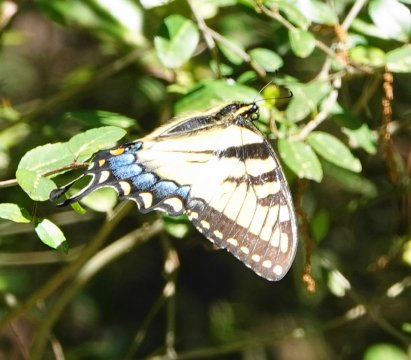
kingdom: Animalia
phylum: Arthropoda
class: Insecta
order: Lepidoptera
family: Papilionidae
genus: Pterourus
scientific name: Pterourus glaucus
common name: Eastern Tiger Swallowtail
